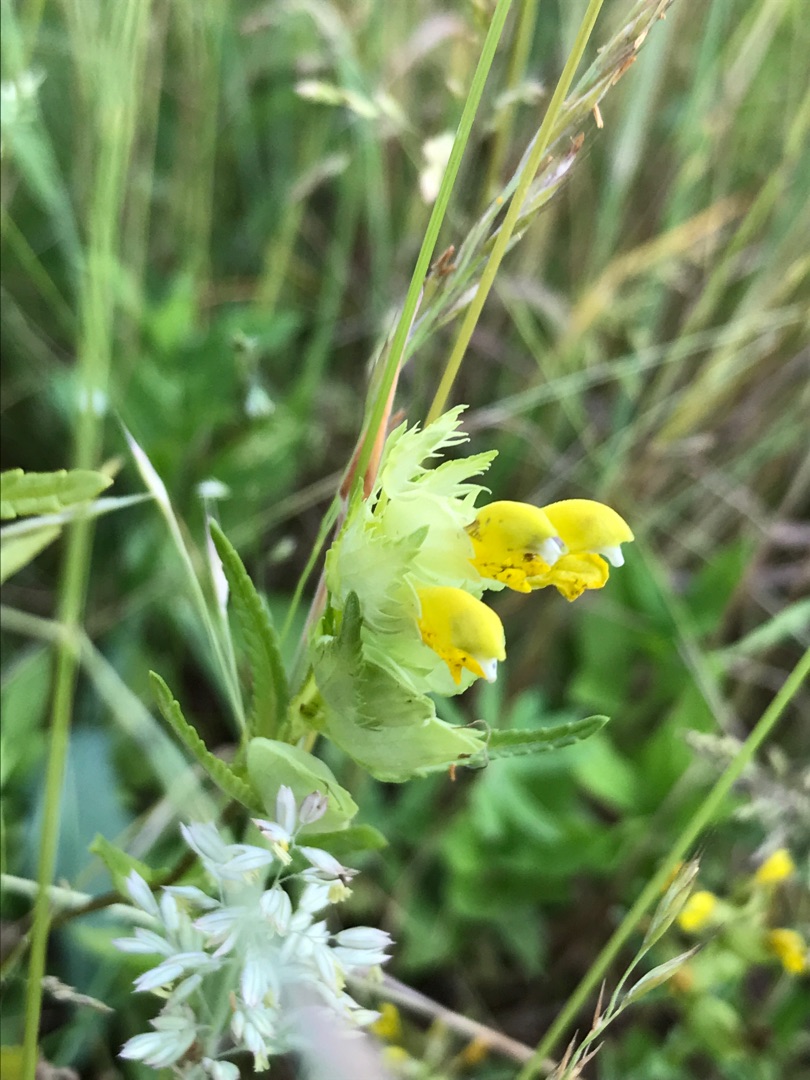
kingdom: Plantae
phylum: Tracheophyta
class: Magnoliopsida
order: Lamiales
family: Orobanchaceae
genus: Rhinanthus
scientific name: Rhinanthus minor
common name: Liden skjaller
